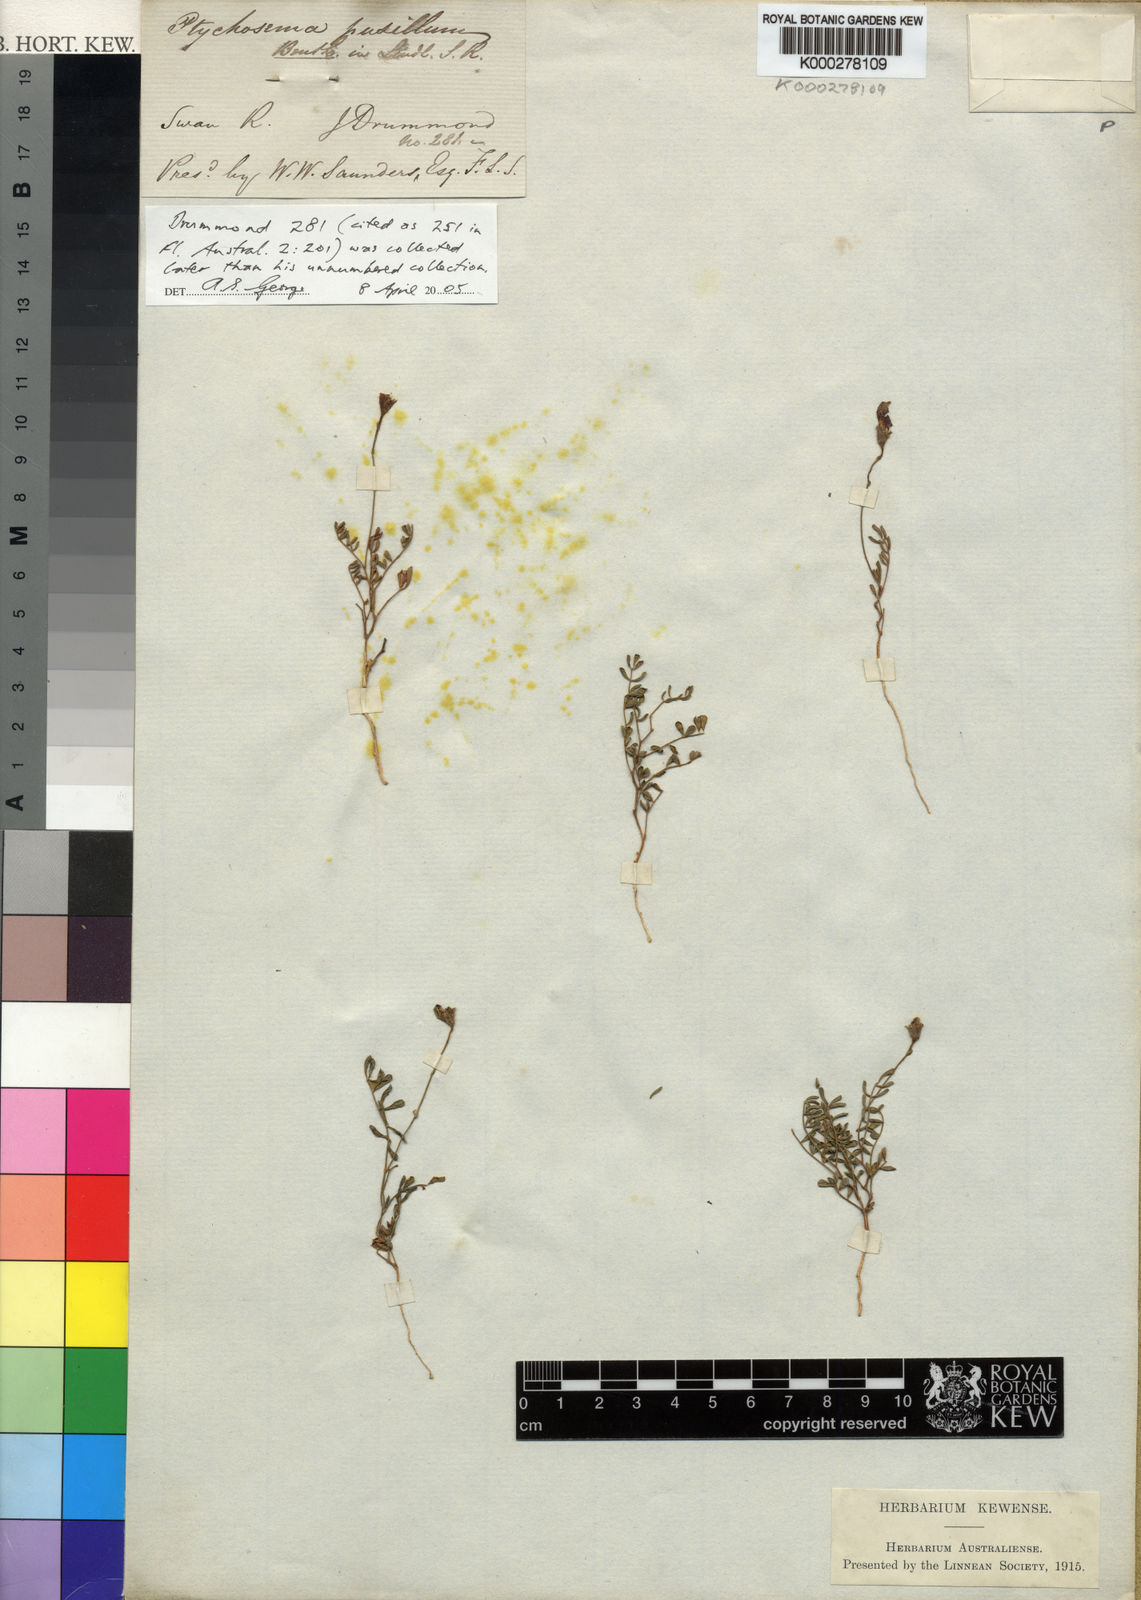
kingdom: Plantae
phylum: Tracheophyta
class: Magnoliopsida
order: Fabales
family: Fabaceae
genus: Ptychosema
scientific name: Ptychosema pusillum
